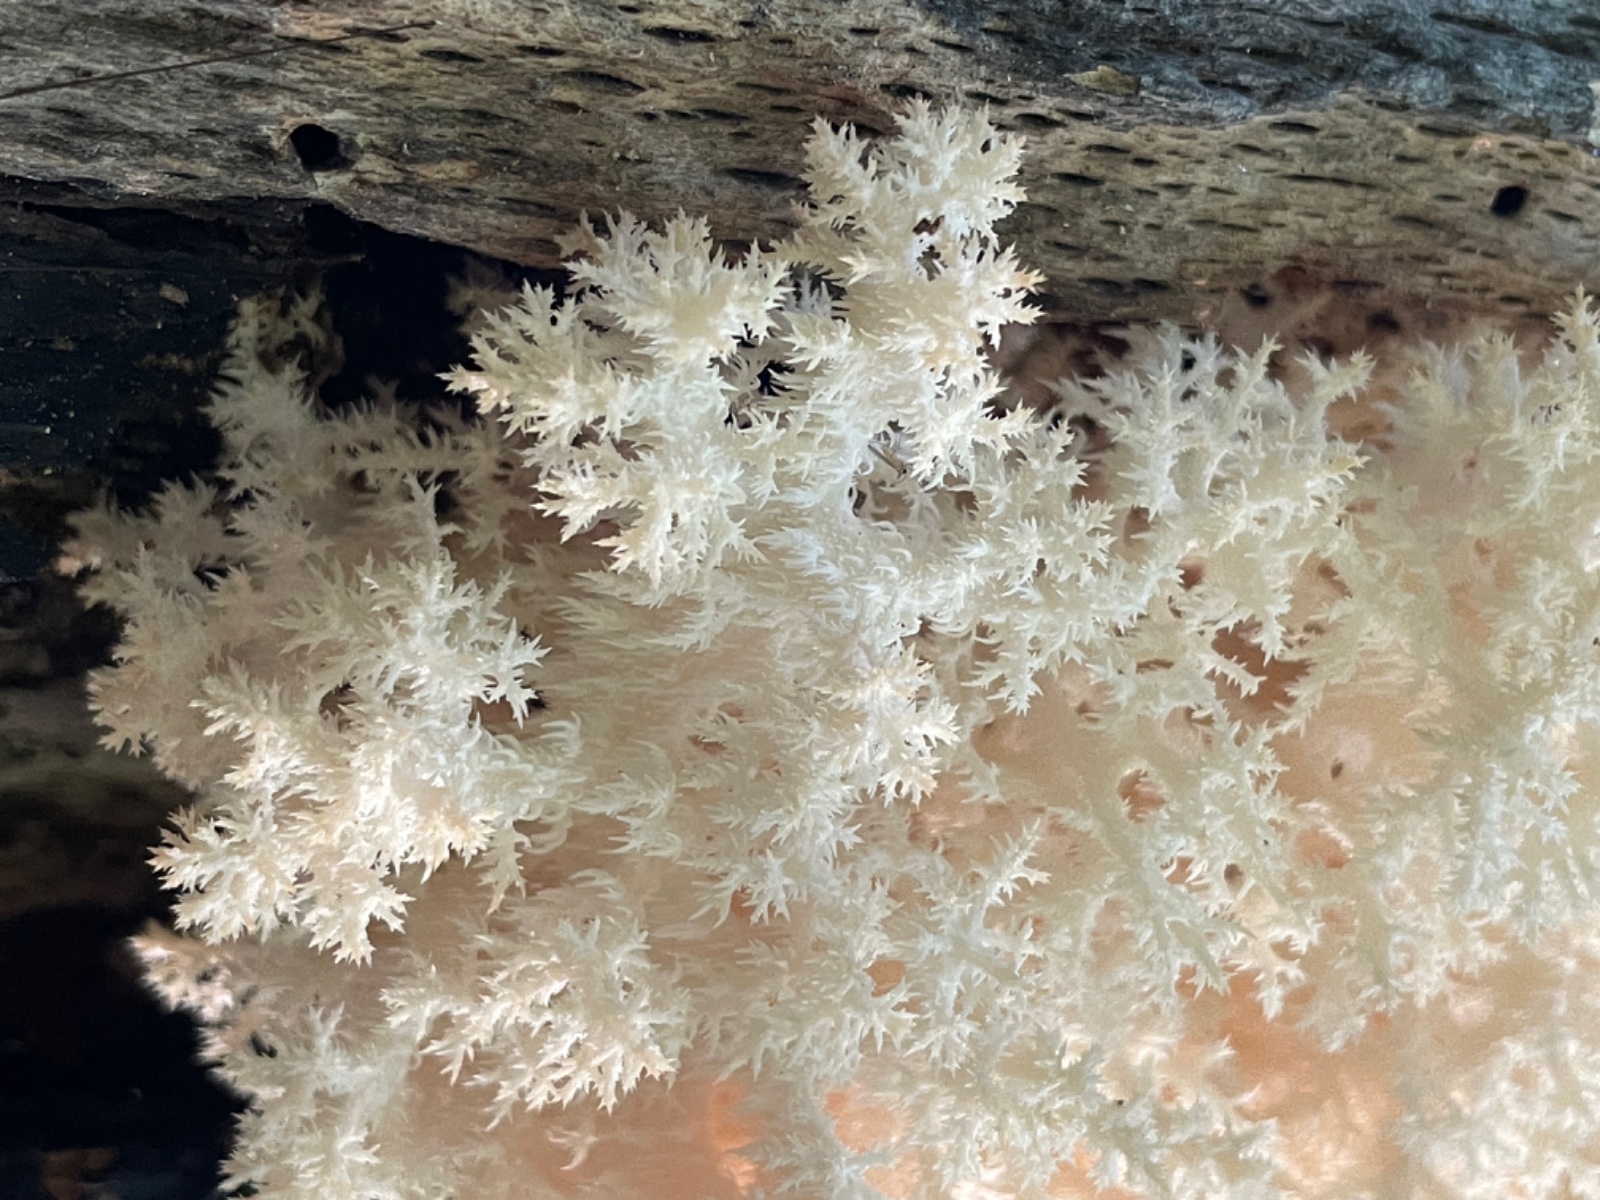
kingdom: Fungi
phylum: Basidiomycota
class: Agaricomycetes
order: Russulales
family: Hericiaceae
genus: Hericium
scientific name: Hericium coralloides
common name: koralpigsvamp
